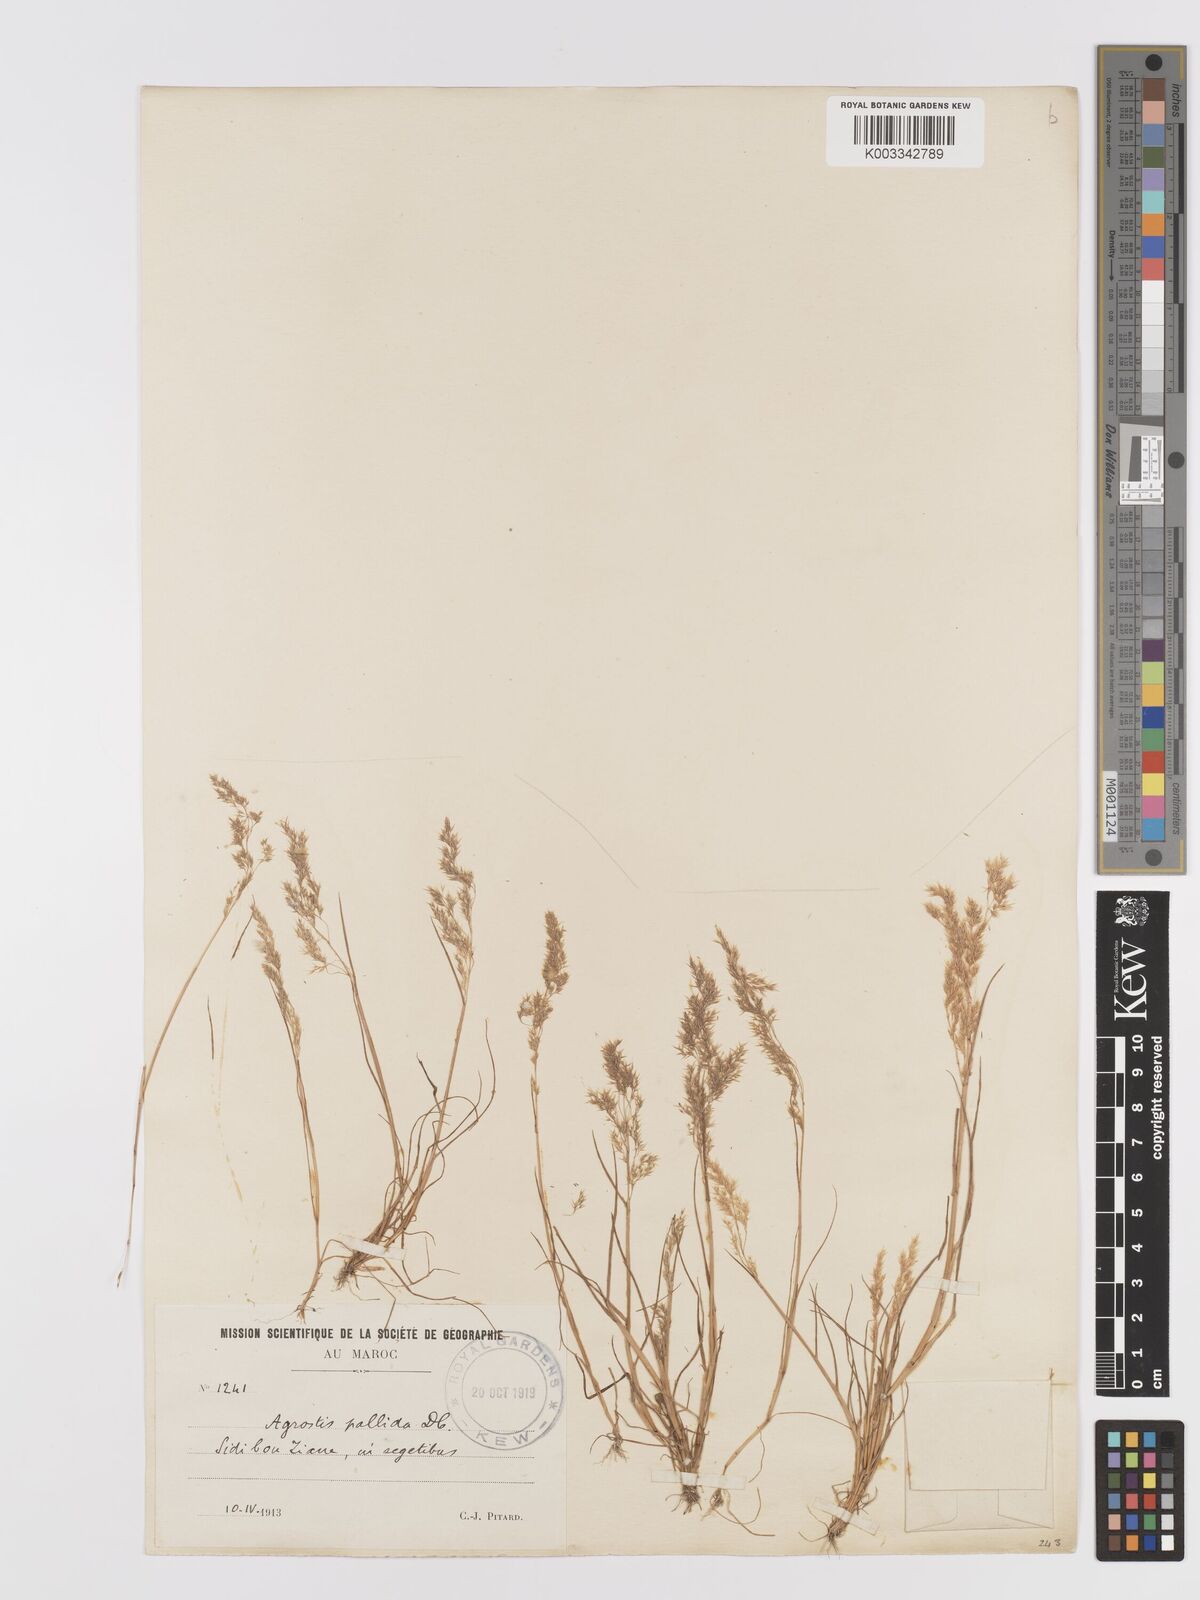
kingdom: Plantae
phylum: Tracheophyta
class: Liliopsida
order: Poales
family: Poaceae
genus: Agrostis
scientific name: Agrostis pourretii
